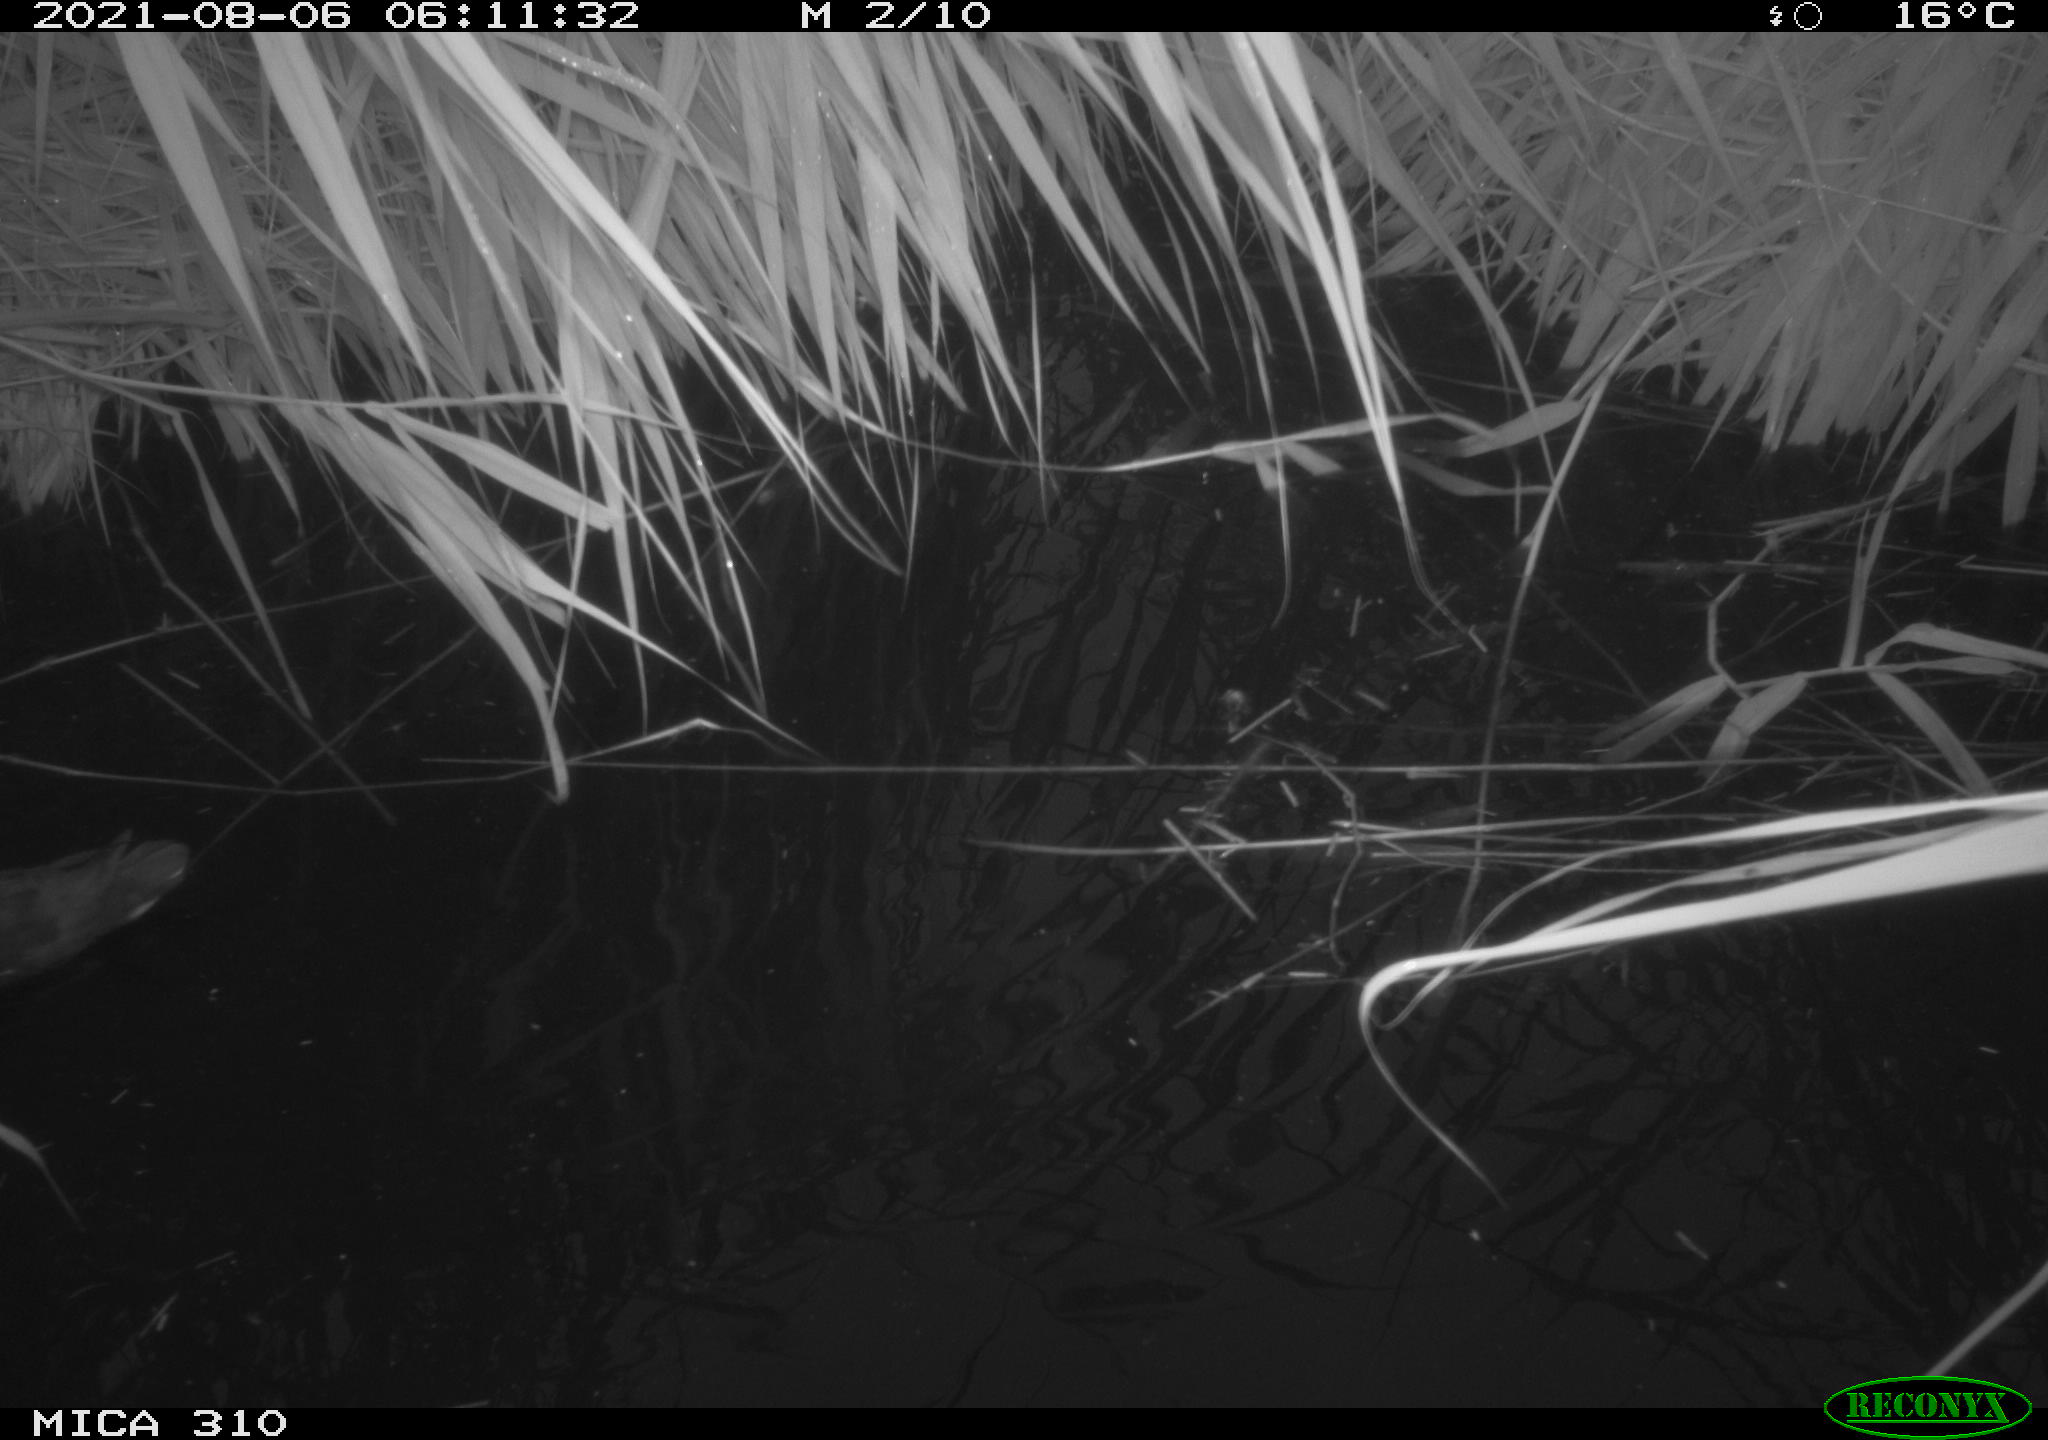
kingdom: Animalia
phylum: Chordata
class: Aves
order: Gruiformes
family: Rallidae
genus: Gallinula
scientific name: Gallinula chloropus
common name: Common moorhen
